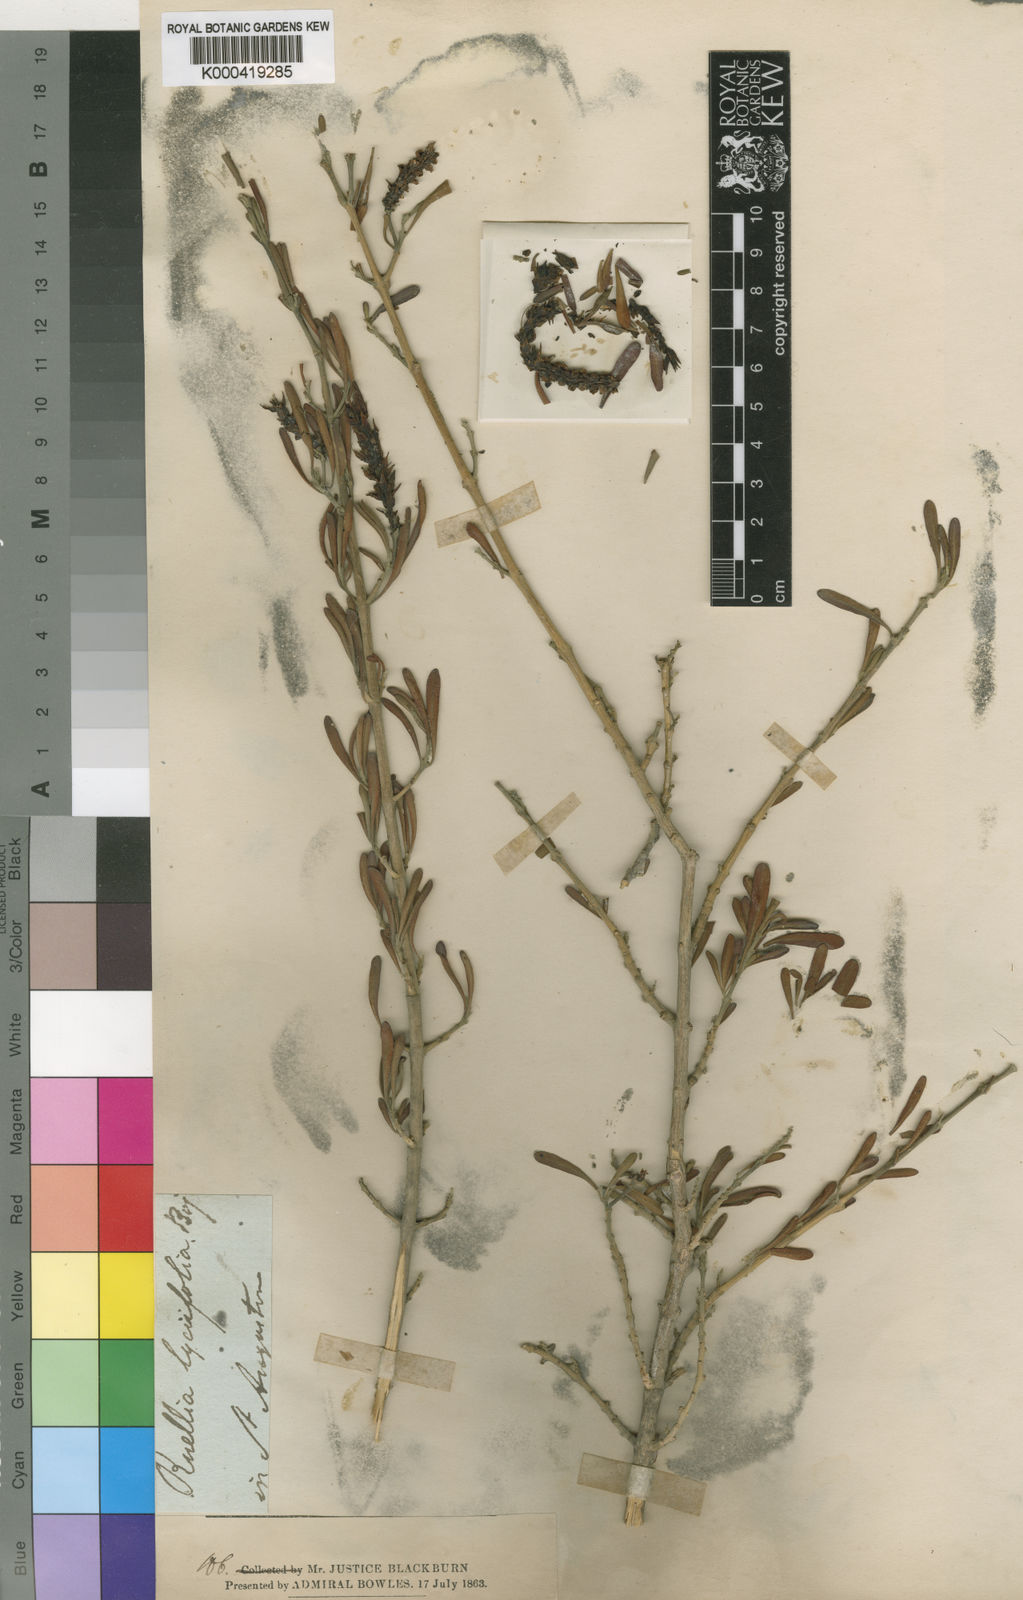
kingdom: Plantae
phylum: Tracheophyta
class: Magnoliopsida
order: Lamiales
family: Acanthaceae
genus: Justicia
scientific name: Justicia
